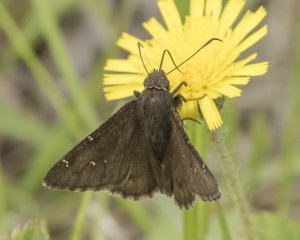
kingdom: Animalia
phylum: Arthropoda
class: Insecta
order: Lepidoptera
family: Hesperiidae
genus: Autochton
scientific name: Autochton
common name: Northern Cloudywing
